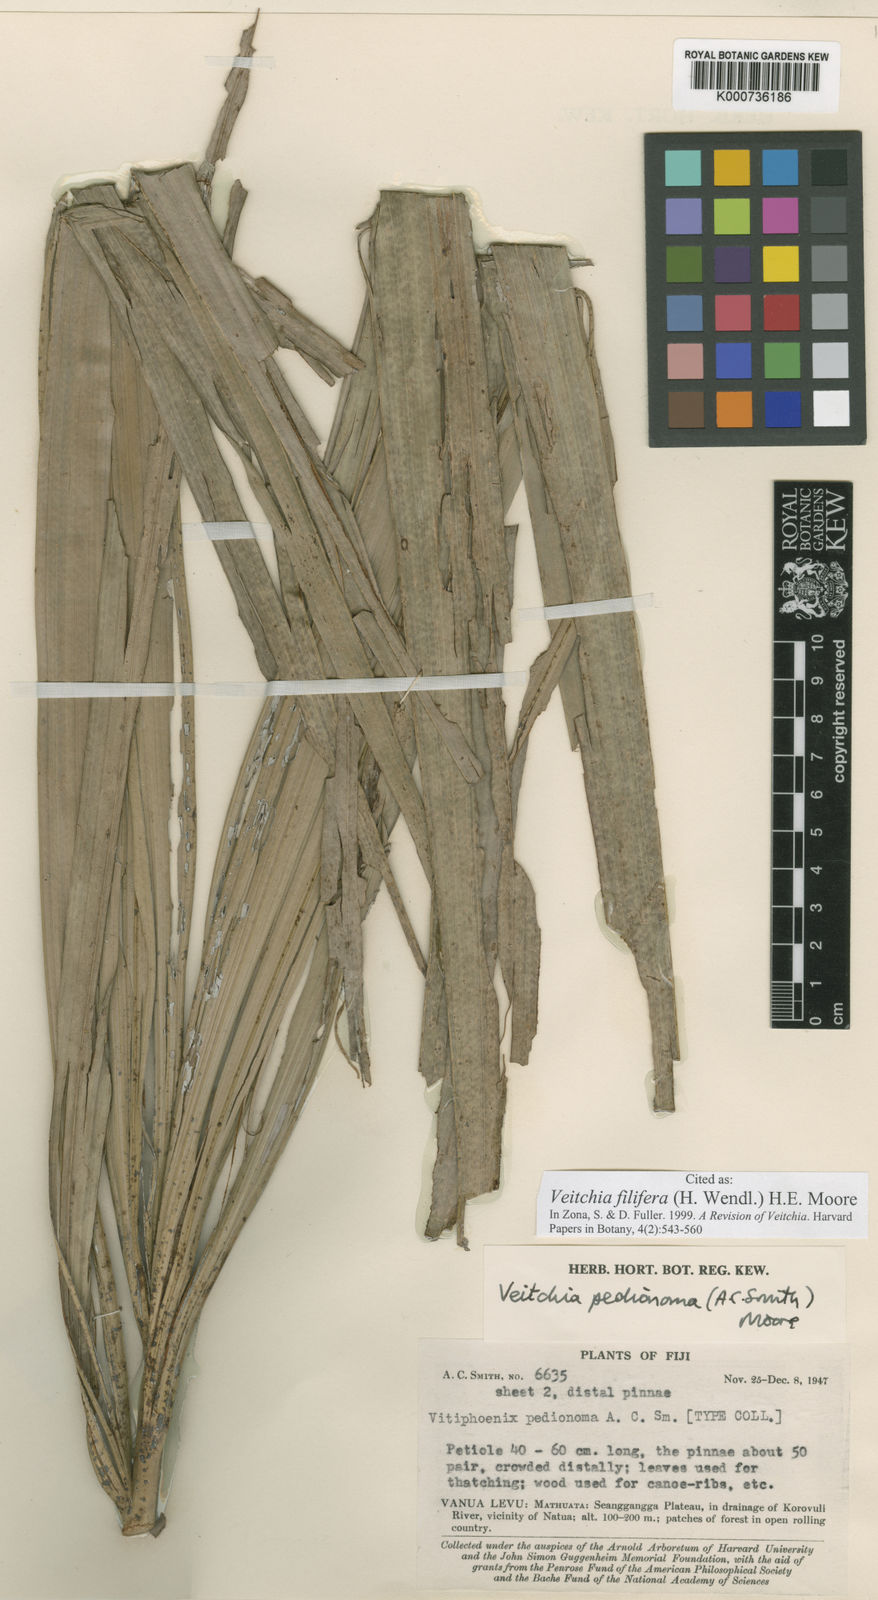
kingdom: Plantae
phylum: Tracheophyta
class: Liliopsida
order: Arecales
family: Arecaceae
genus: Veitchia
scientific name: Veitchia filifera
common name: Cagicake
